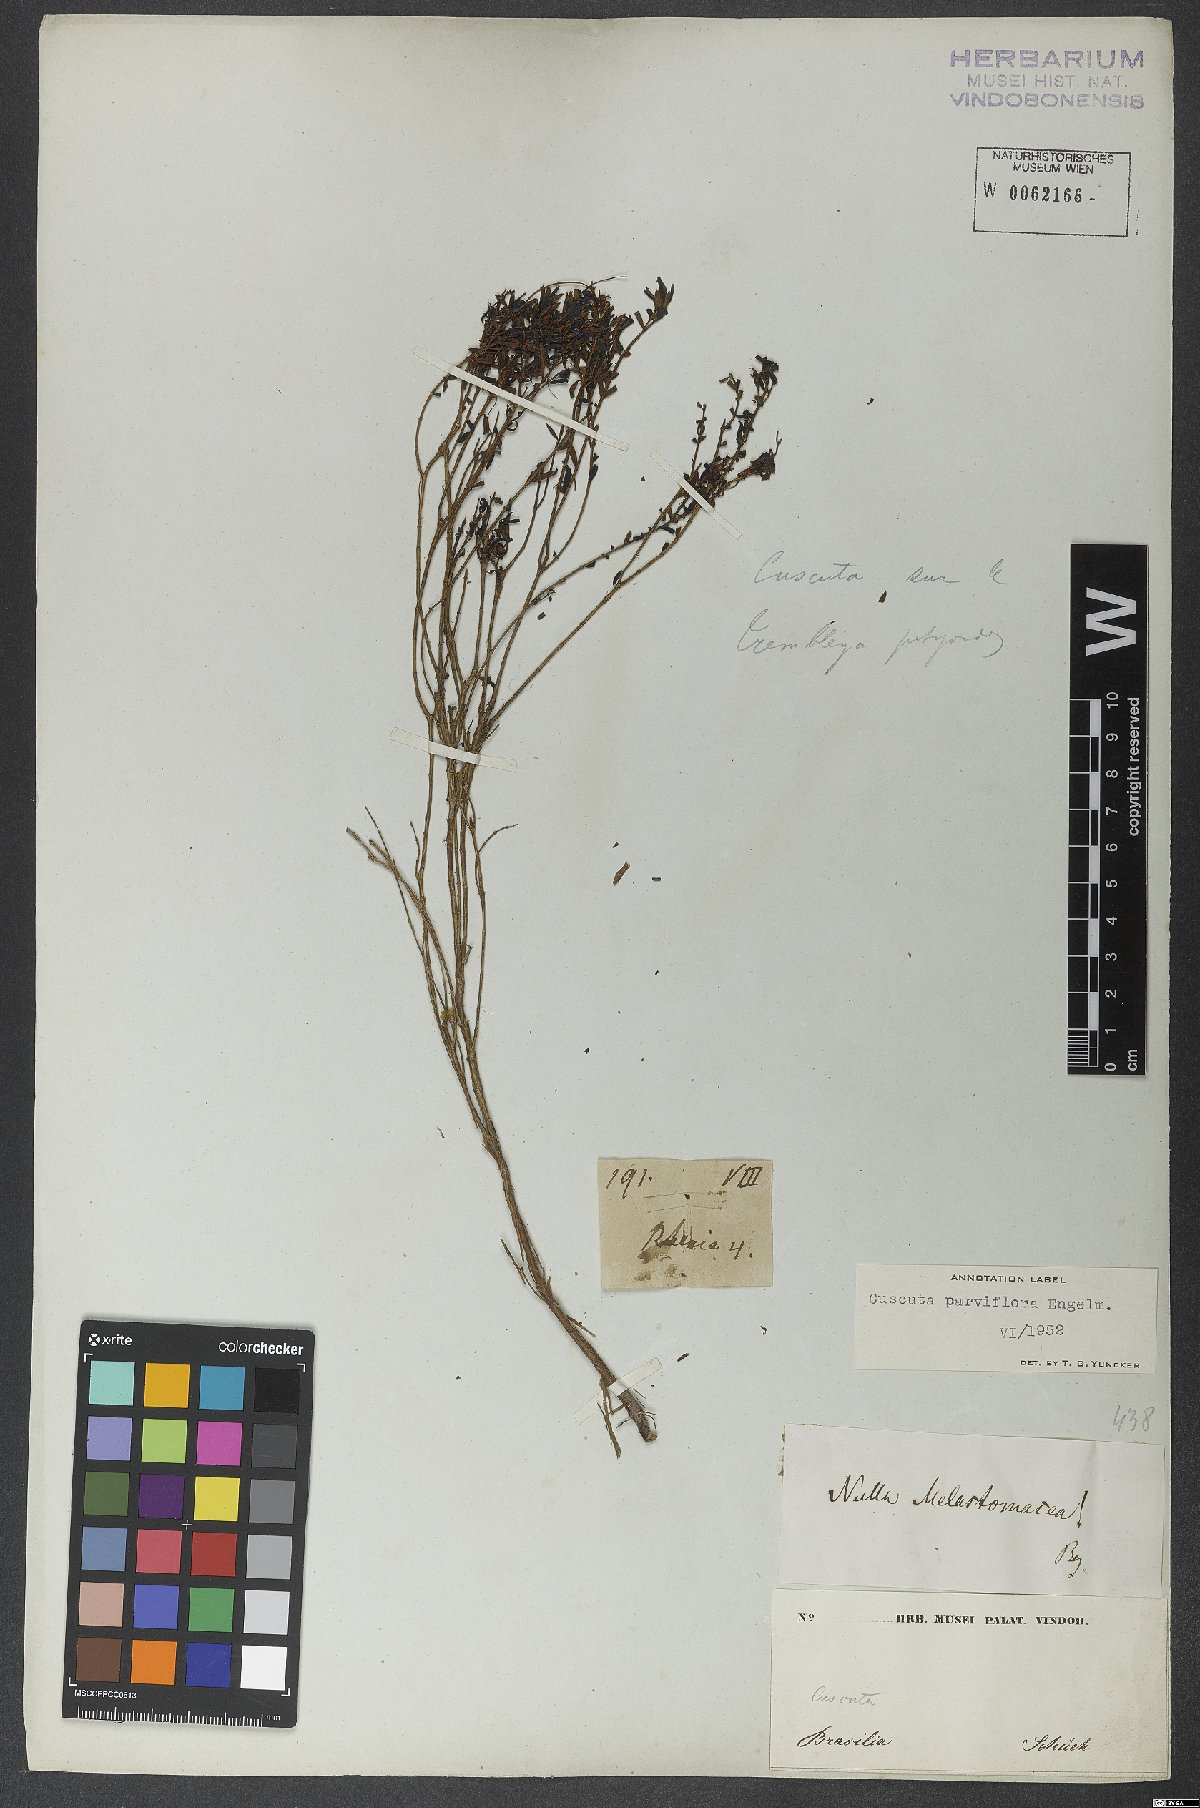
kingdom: Plantae
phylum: Tracheophyta
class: Magnoliopsida
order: Solanales
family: Convolvulaceae
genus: Cuscuta
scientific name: Cuscuta parviflora
